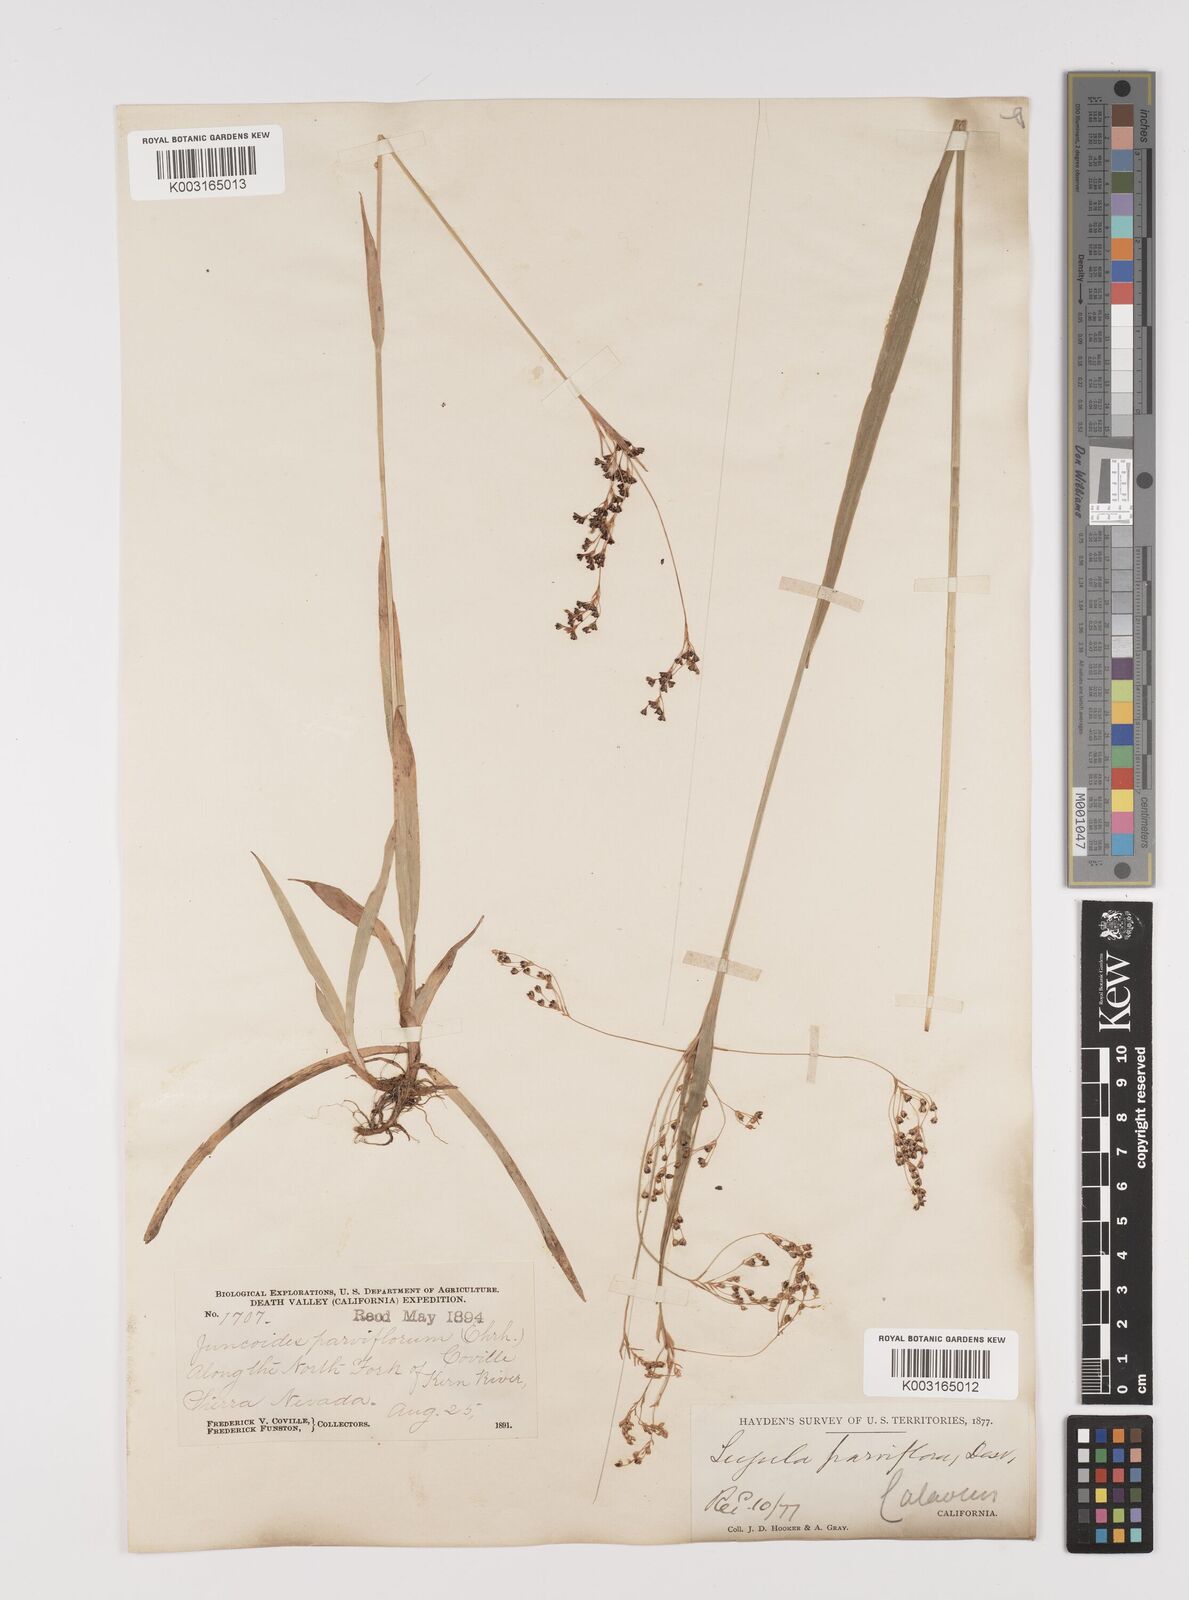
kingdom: Plantae
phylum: Tracheophyta
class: Liliopsida
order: Poales
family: Juncaceae
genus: Luzula
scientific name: Luzula parviflora
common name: Millet woodrush
